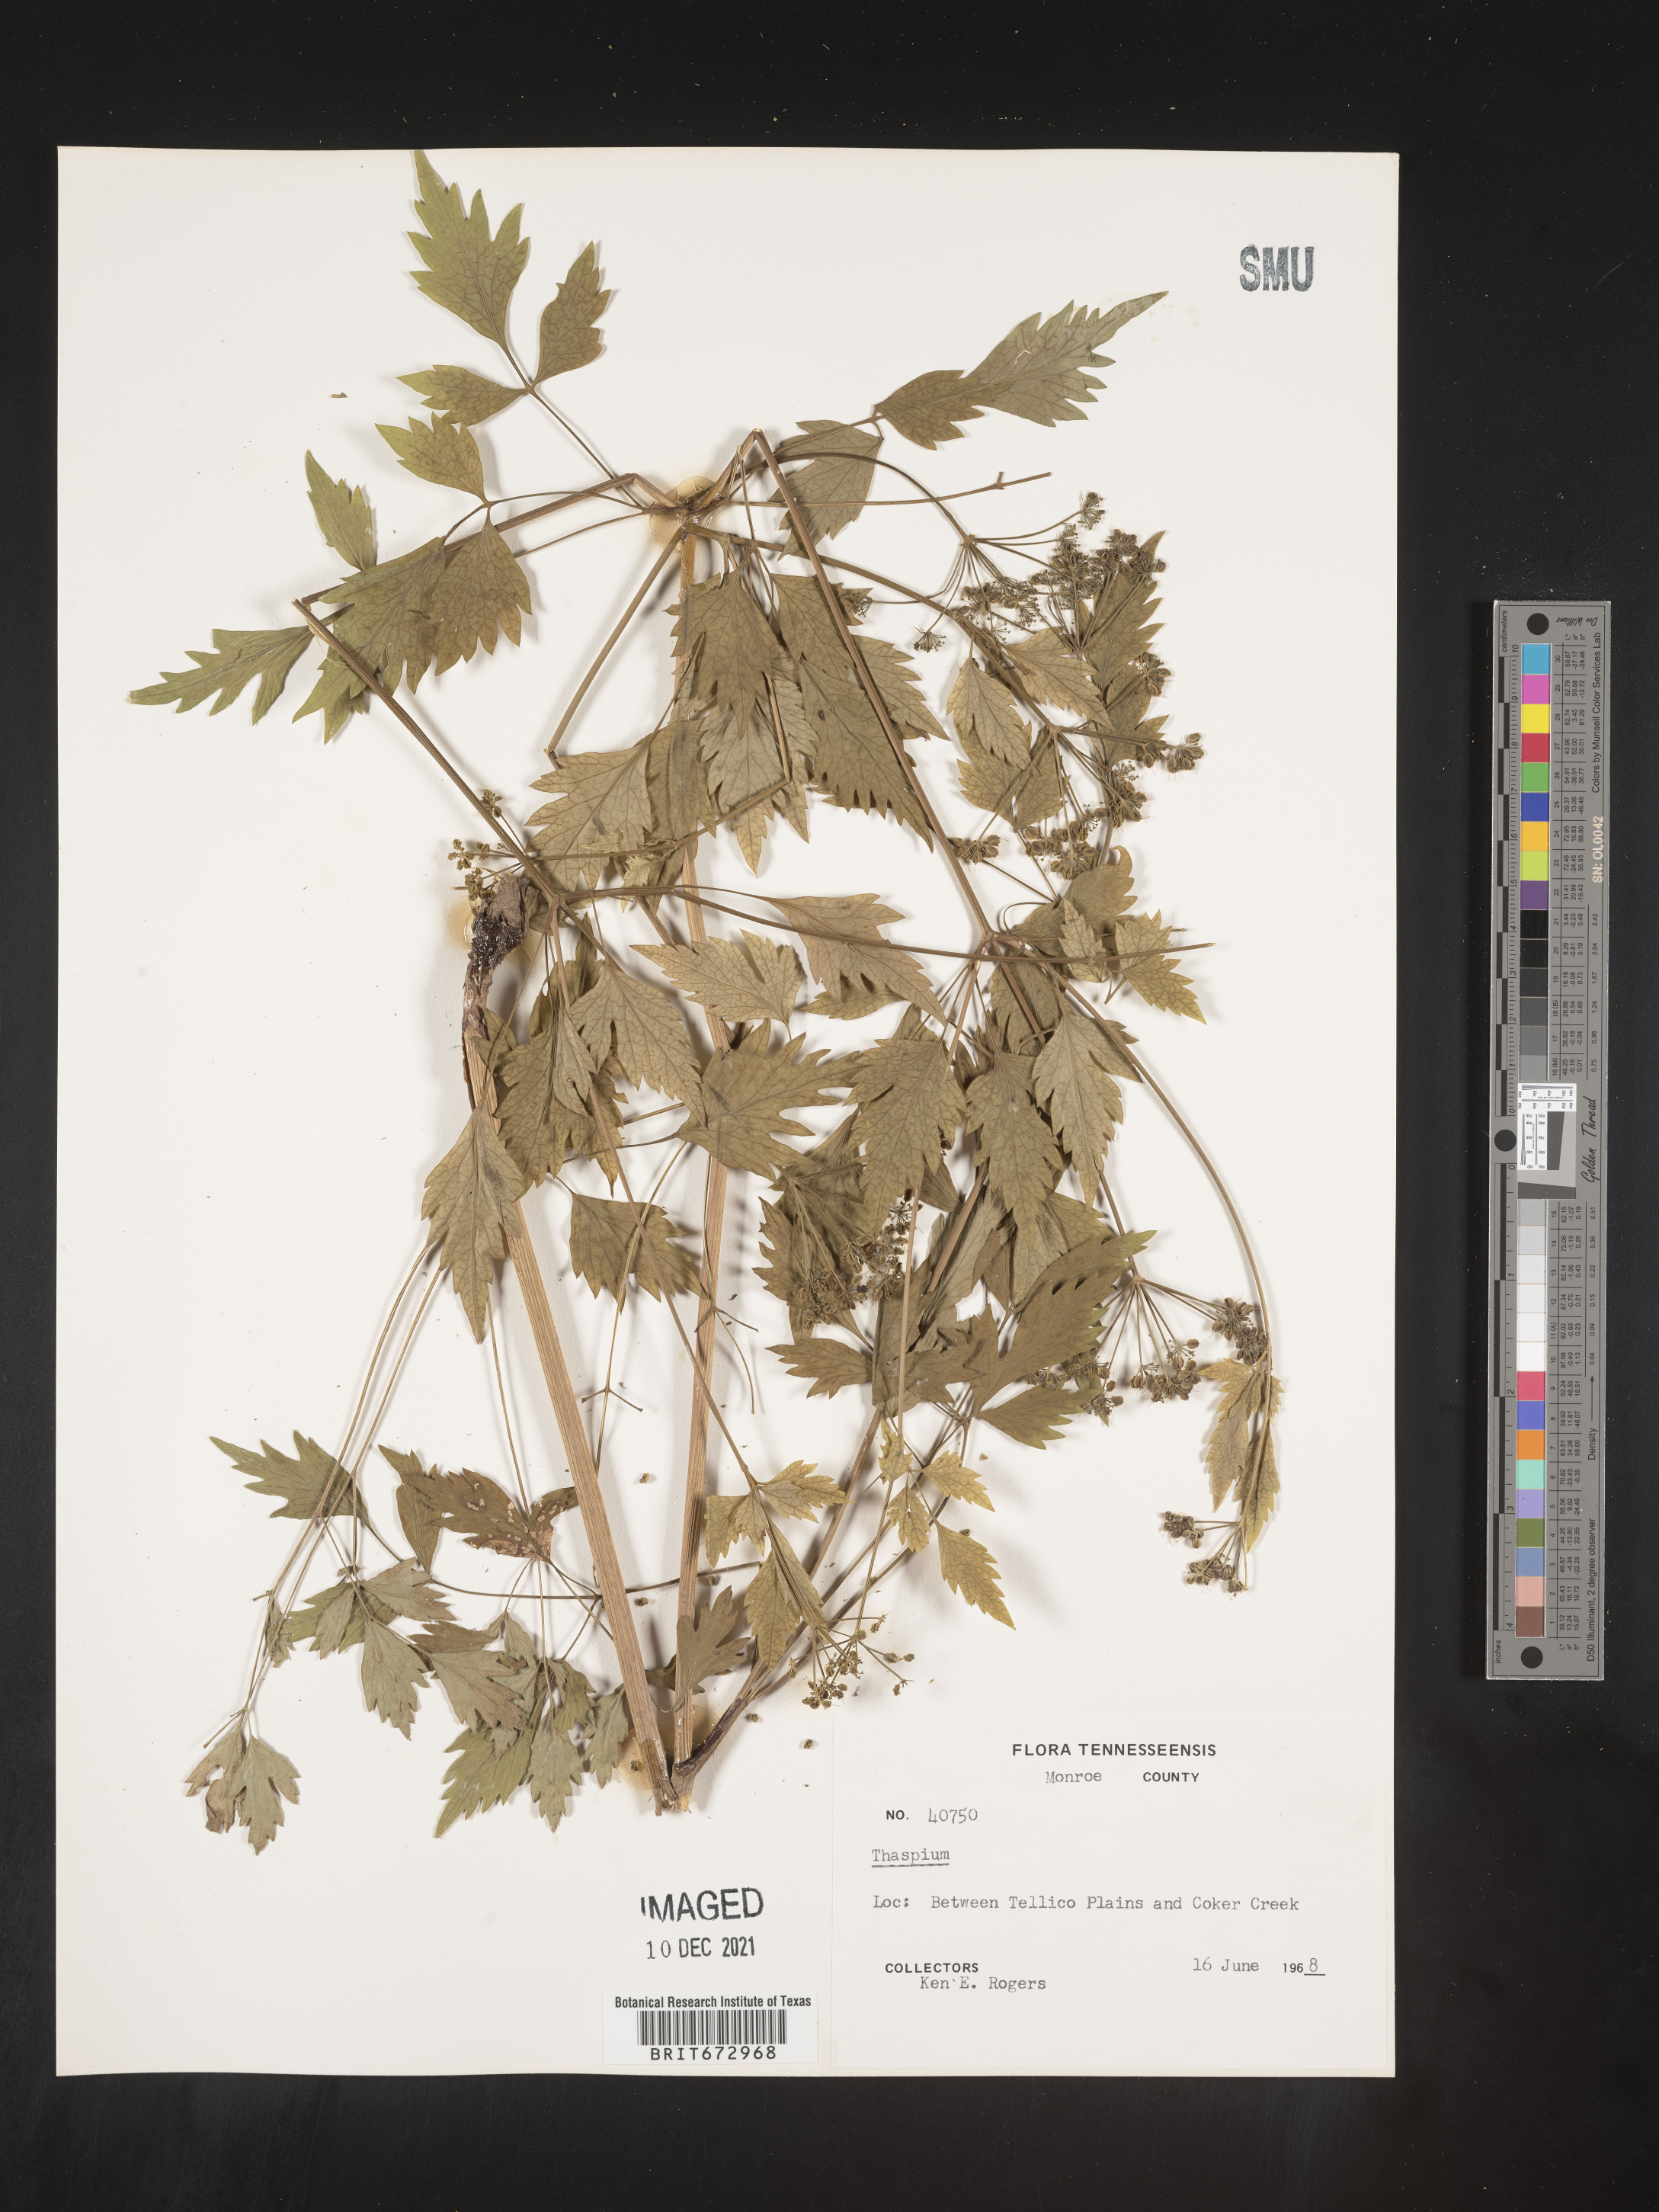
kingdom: Plantae
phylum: Tracheophyta
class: Magnoliopsida
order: Apiales
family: Apiaceae
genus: Thaspium
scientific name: Thaspium
